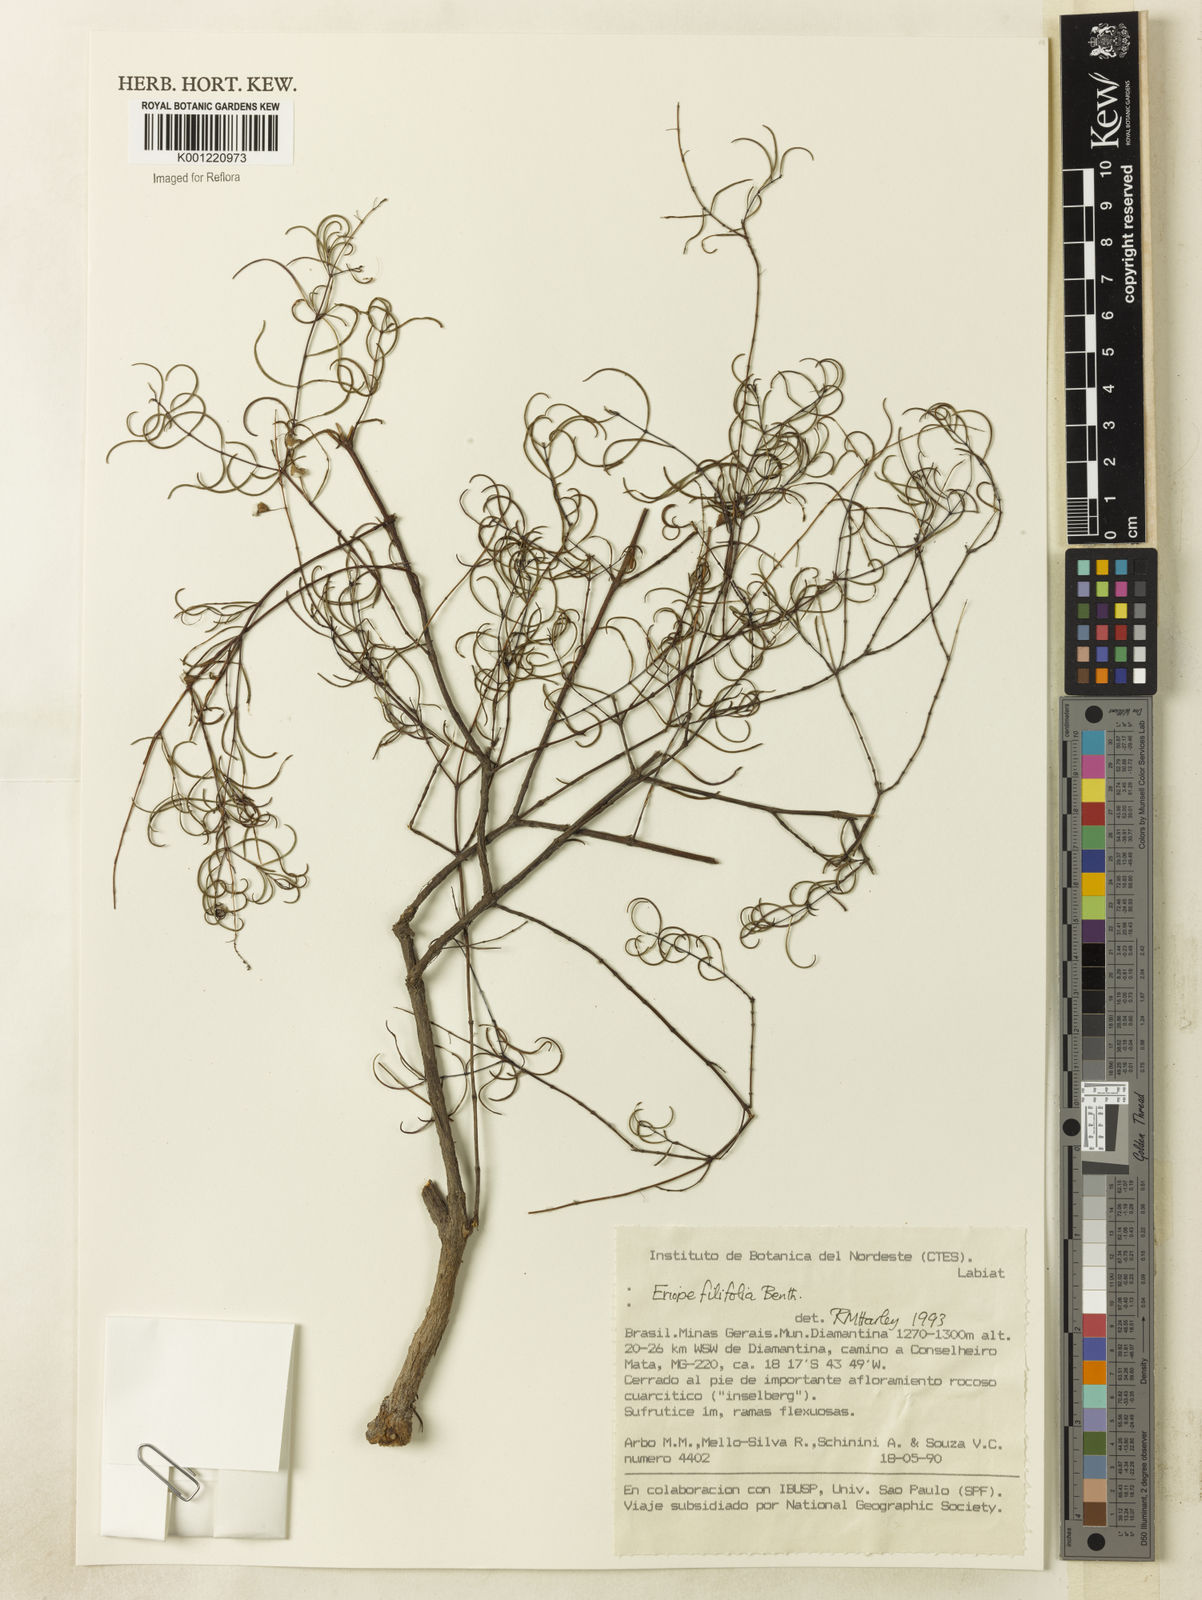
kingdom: Plantae
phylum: Tracheophyta
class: Magnoliopsida
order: Lamiales
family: Lamiaceae
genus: Eriope
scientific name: Eriope filifolia
